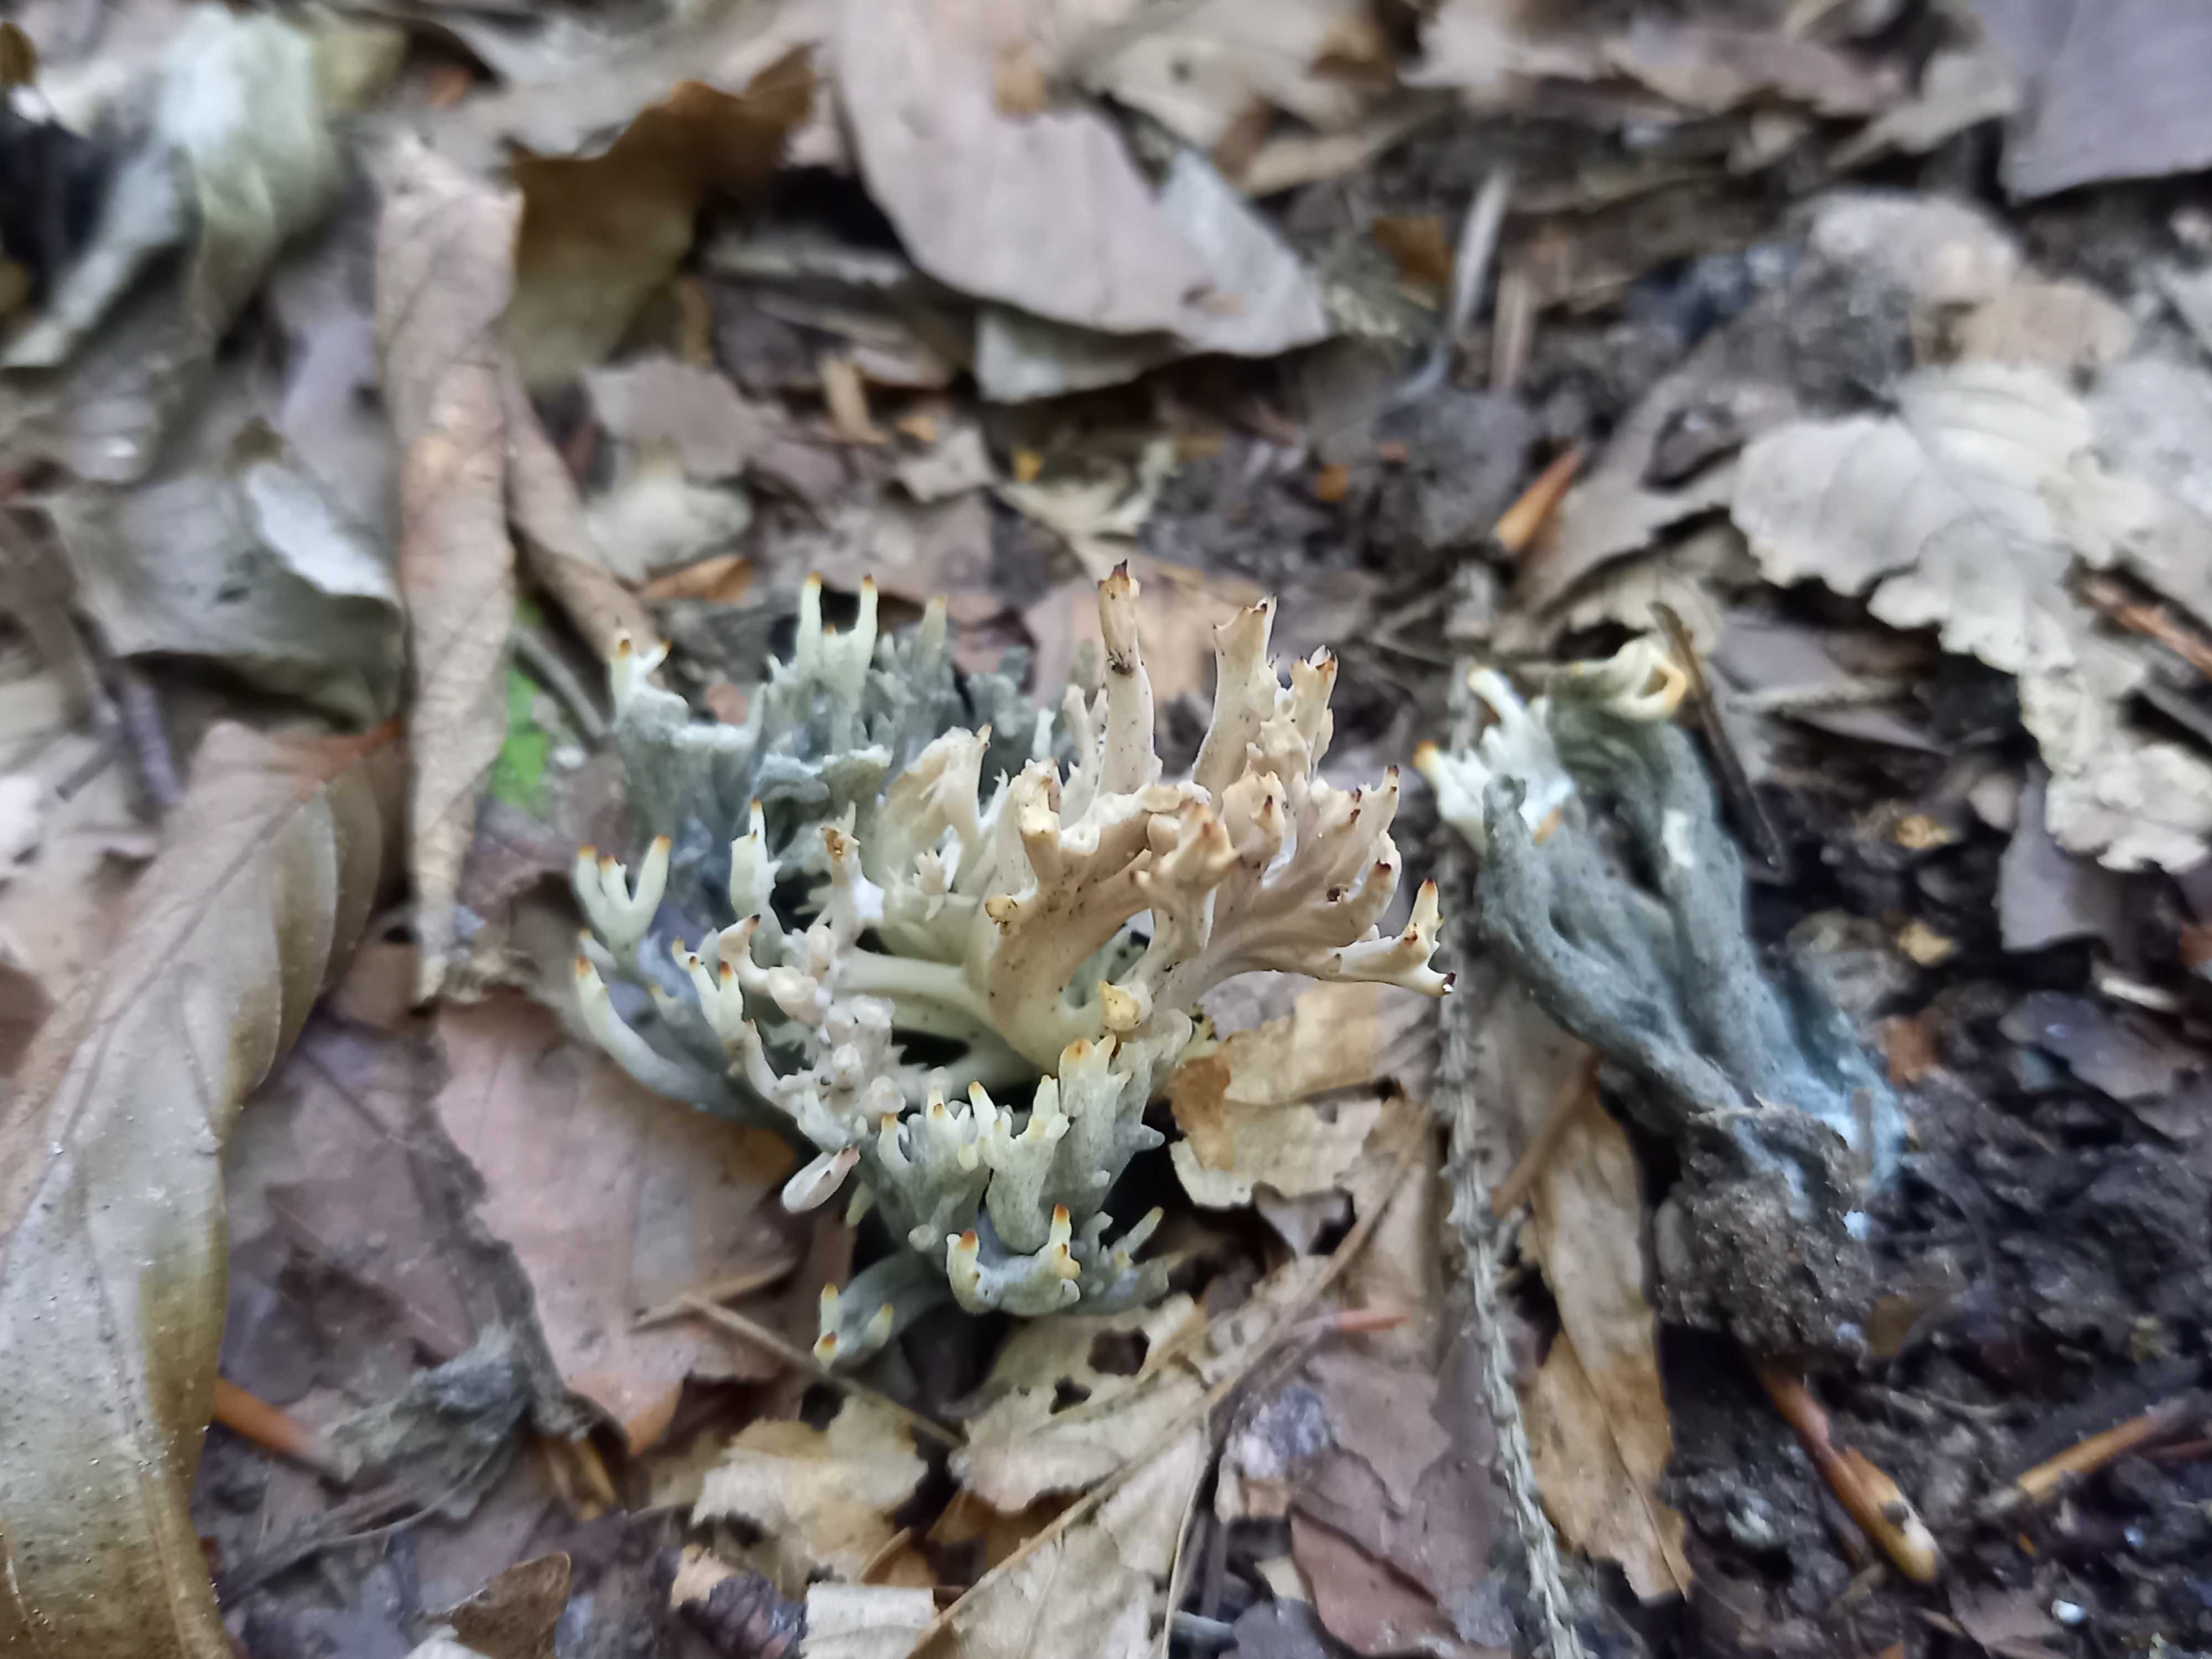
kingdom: Fungi
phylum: Ascomycota
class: Sordariomycetes
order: Sordariales
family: Helminthosphaeriaceae
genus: Helminthosphaeria
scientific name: Helminthosphaeria clavariarum
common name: trold-svampesnyltekerne
